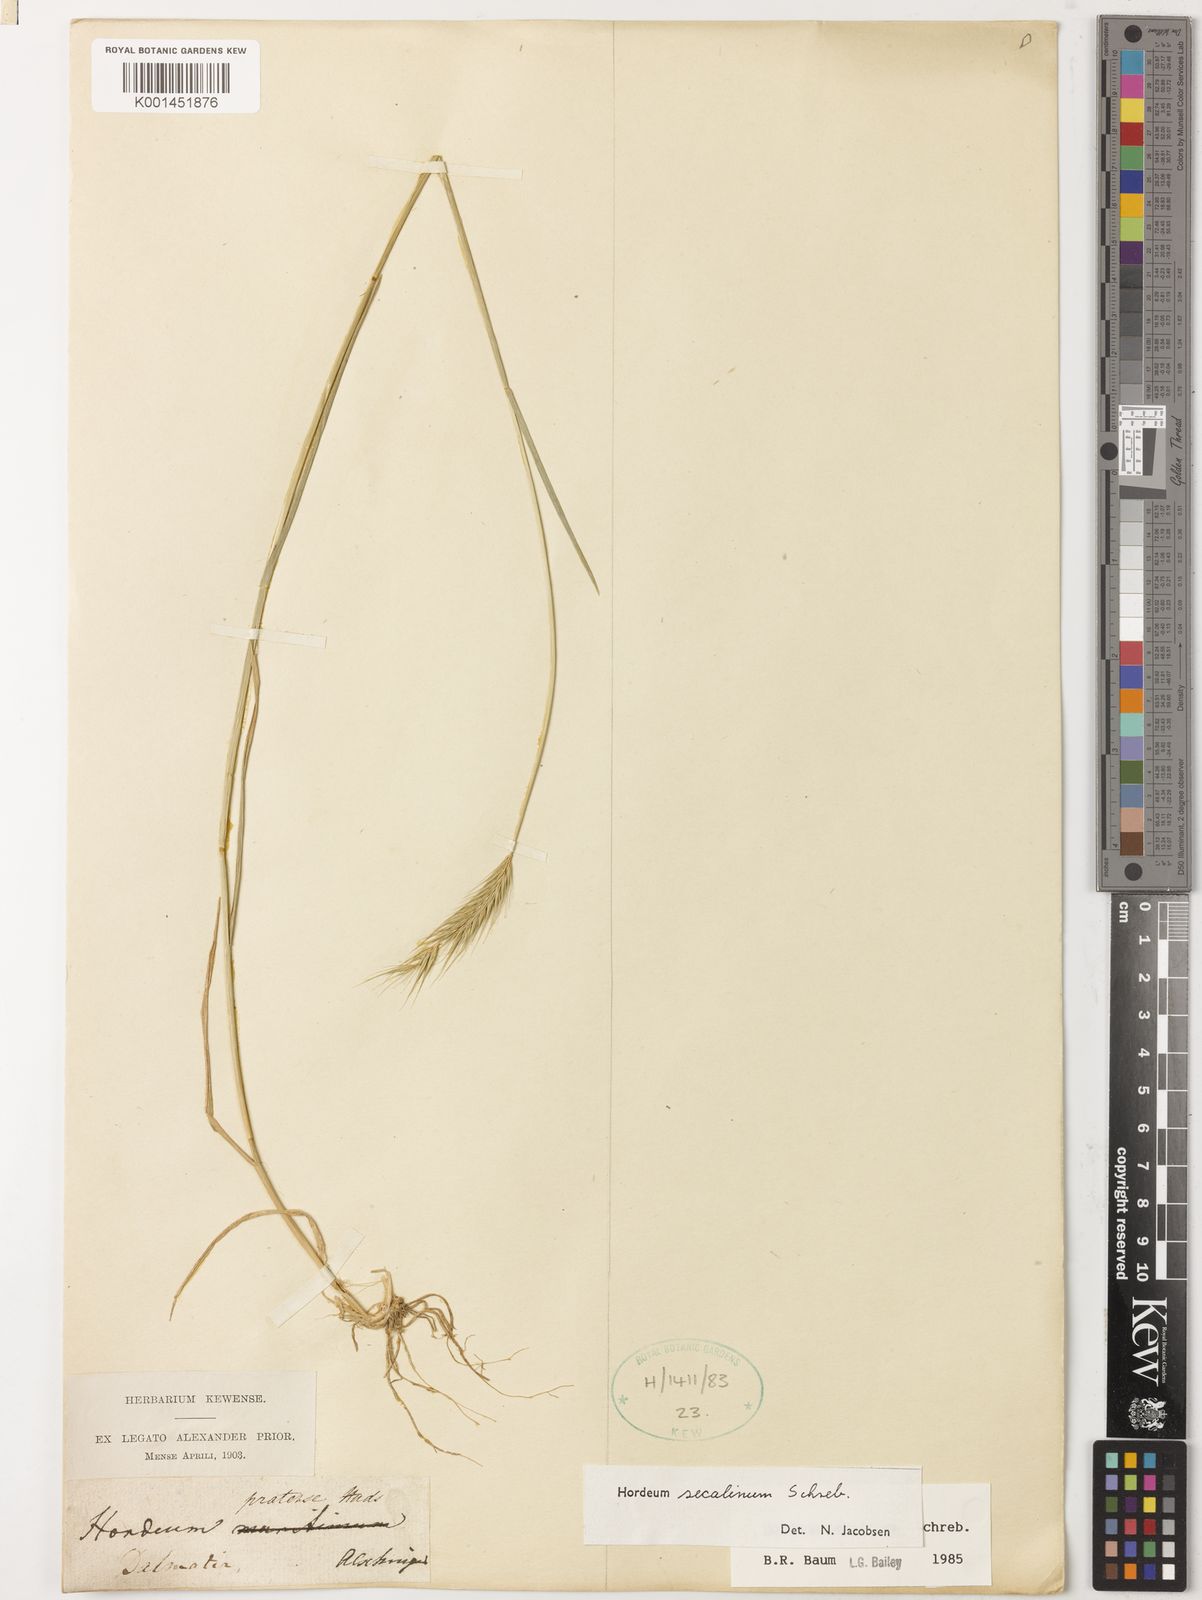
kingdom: Plantae
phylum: Tracheophyta
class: Liliopsida
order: Poales
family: Poaceae
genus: Hordeum
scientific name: Hordeum secalinum
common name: Meadow barley
